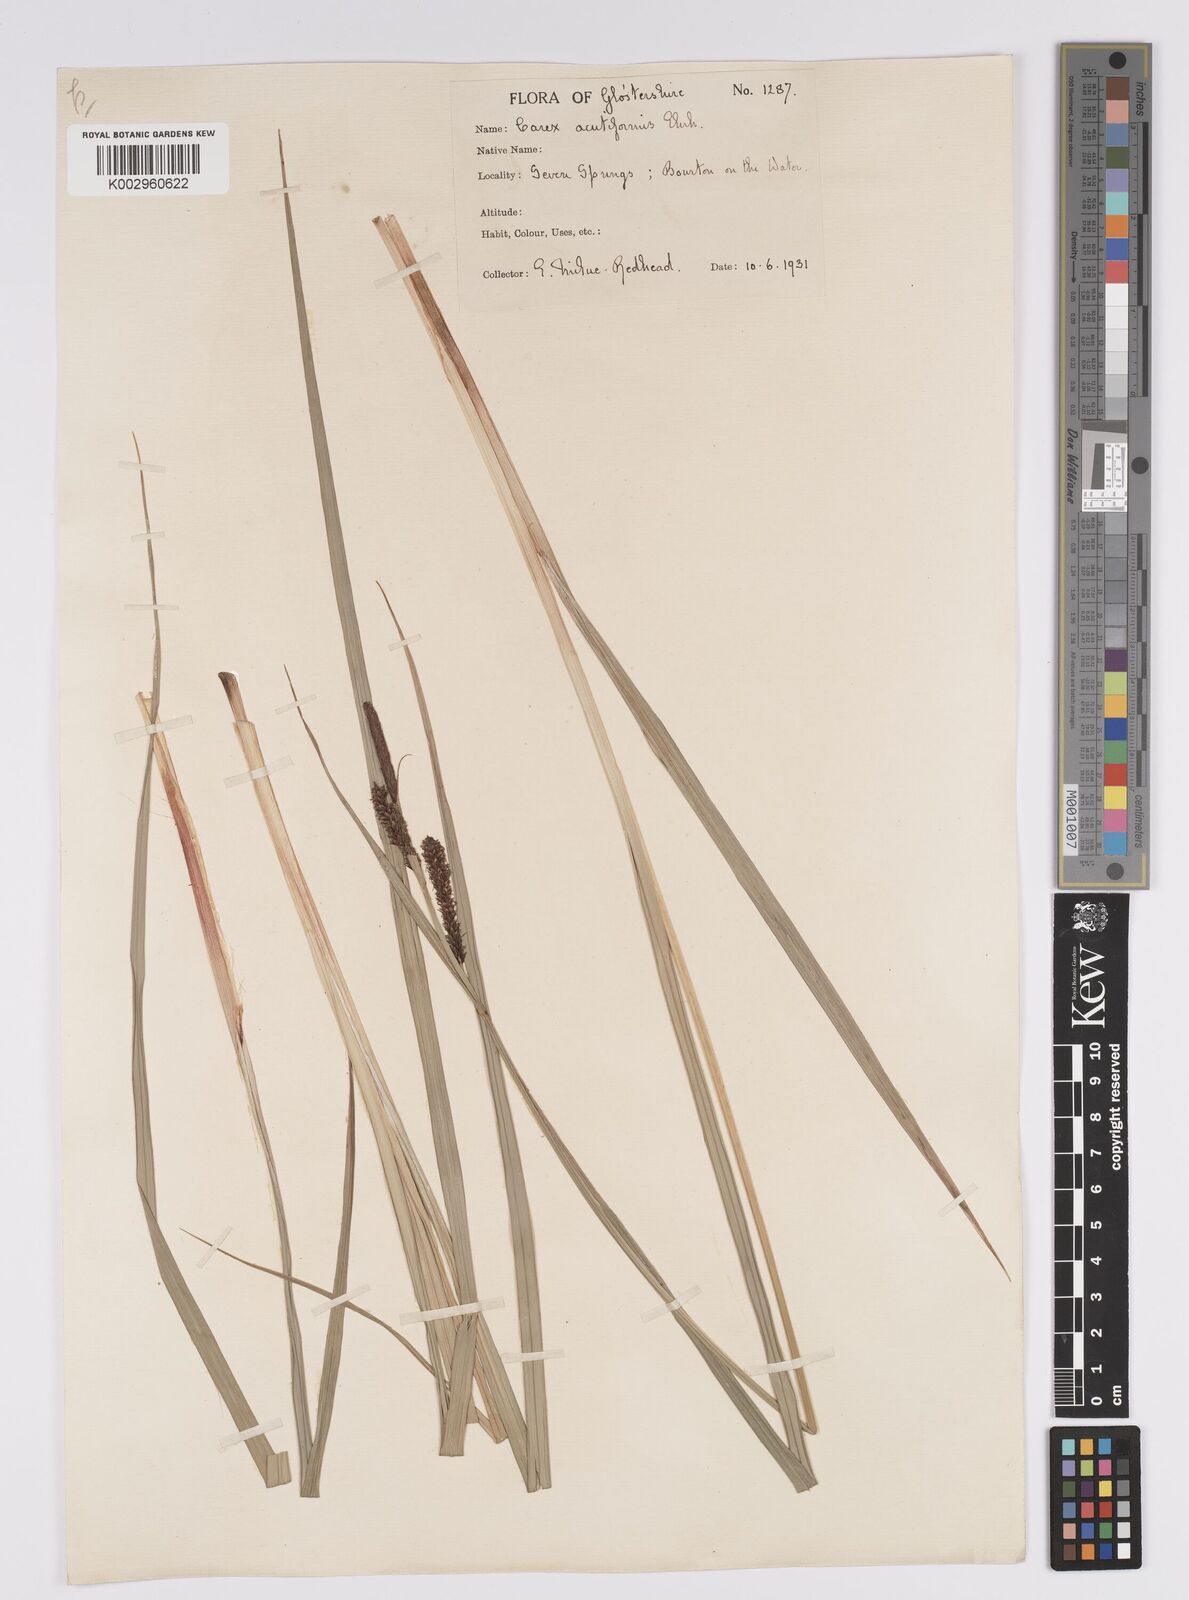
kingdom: Plantae
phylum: Tracheophyta
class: Liliopsida
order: Poales
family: Cyperaceae
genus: Carex
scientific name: Carex acutiformis
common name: Lesser pond-sedge
